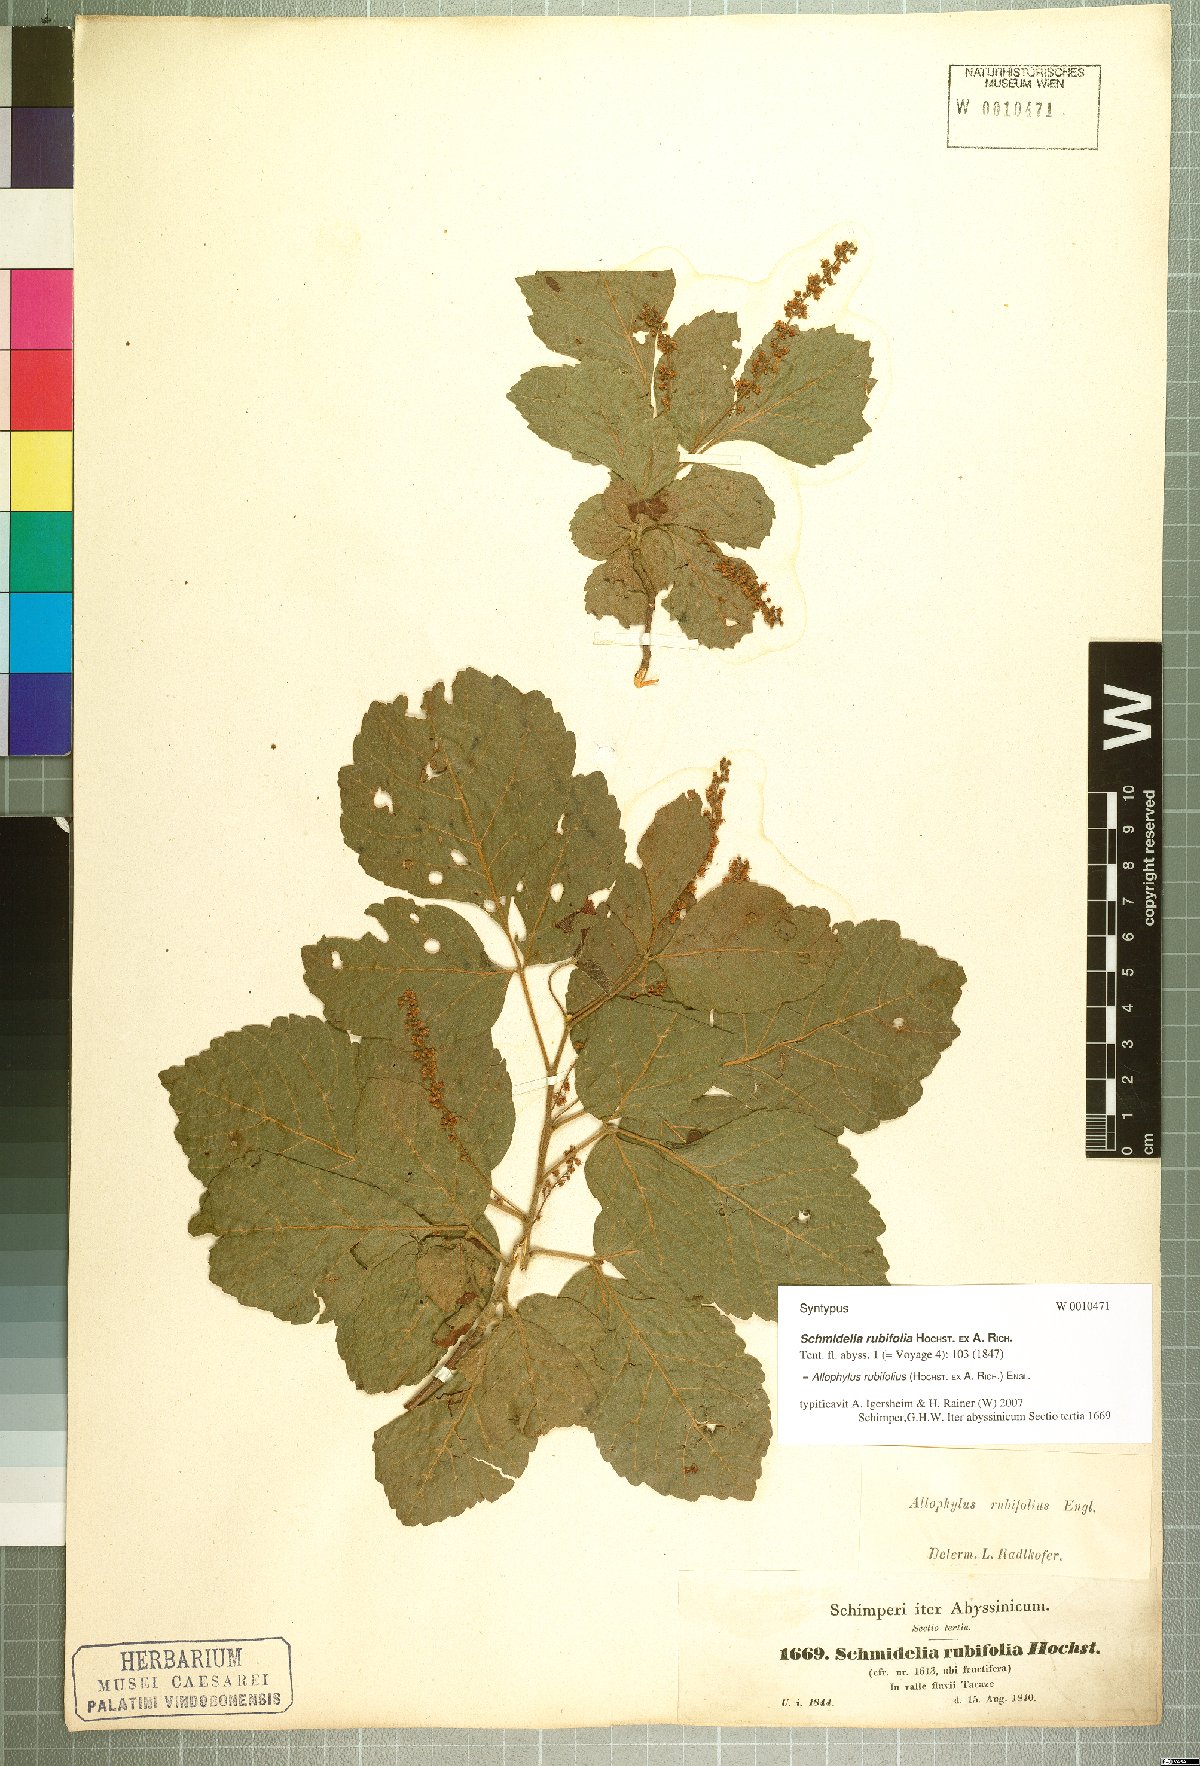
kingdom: Plantae
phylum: Tracheophyta
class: Magnoliopsida
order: Sapindales
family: Sapindaceae
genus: Allophylus
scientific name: Allophylus rubifolius
